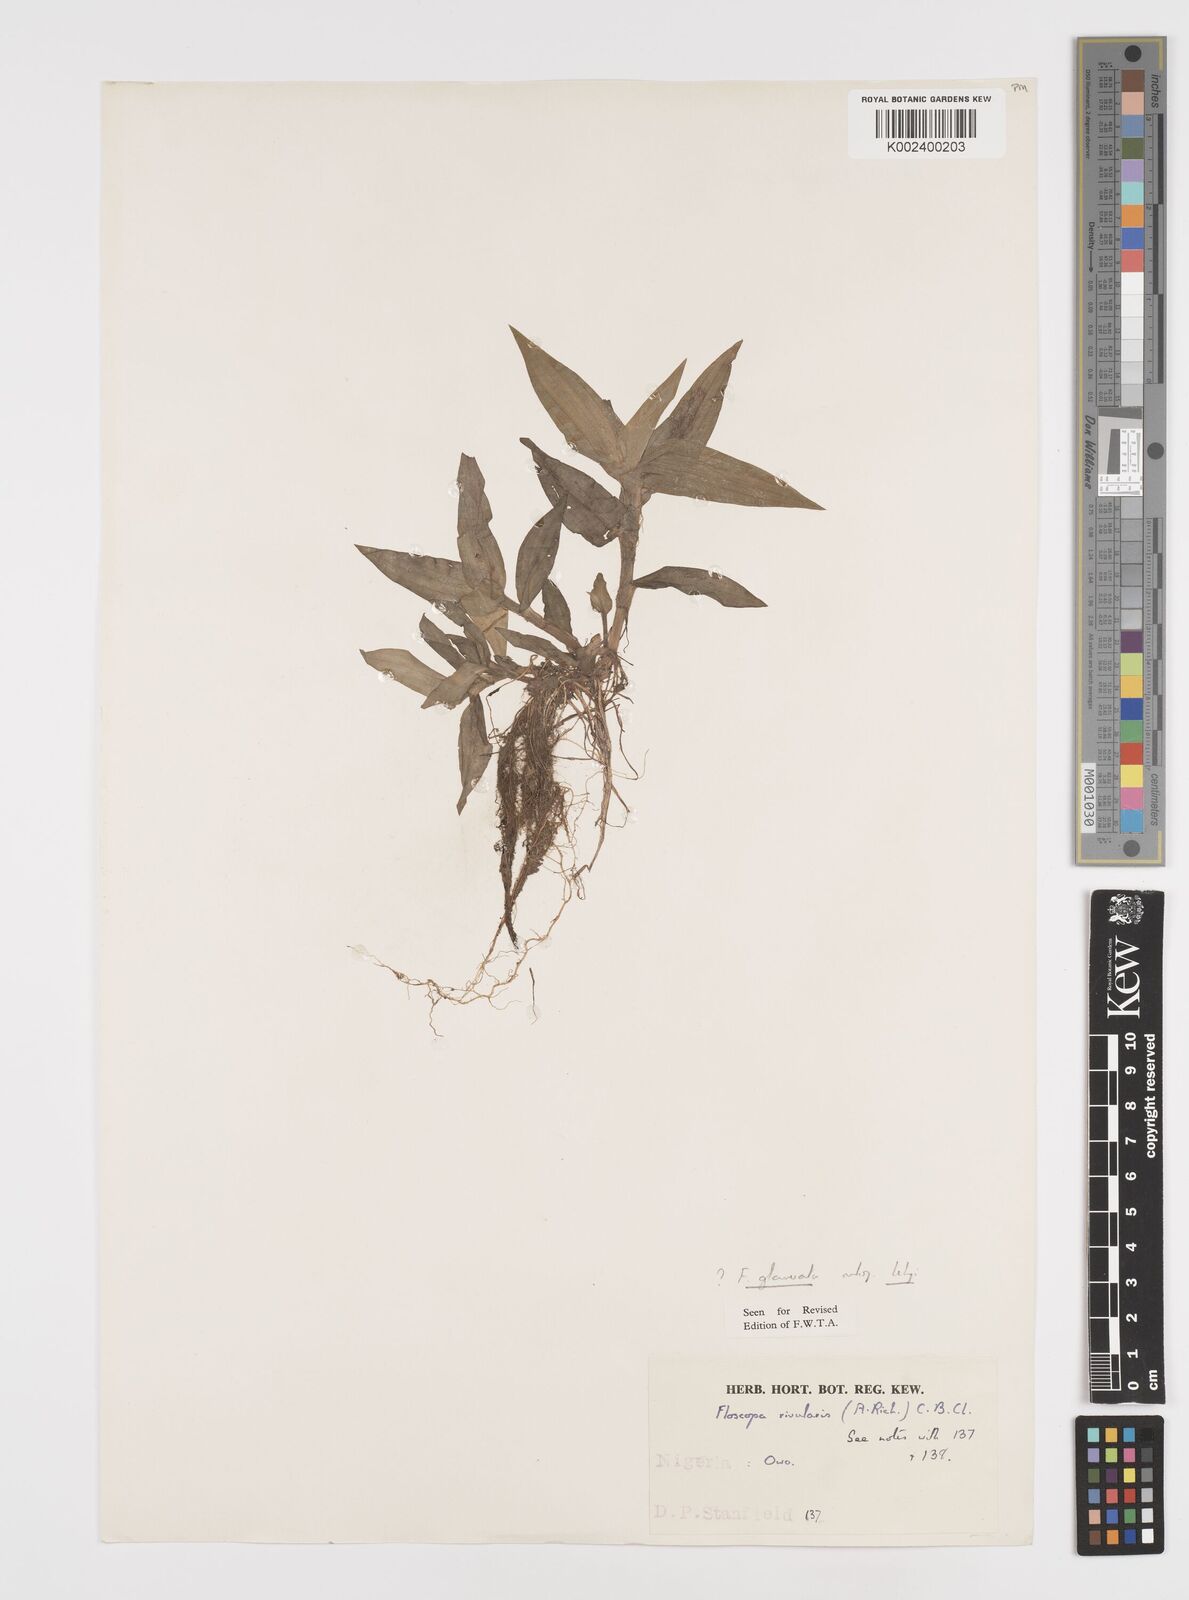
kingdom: Plantae
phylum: Tracheophyta
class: Liliopsida
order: Commelinales
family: Commelinaceae
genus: Floscopa
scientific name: Floscopa glomerata
